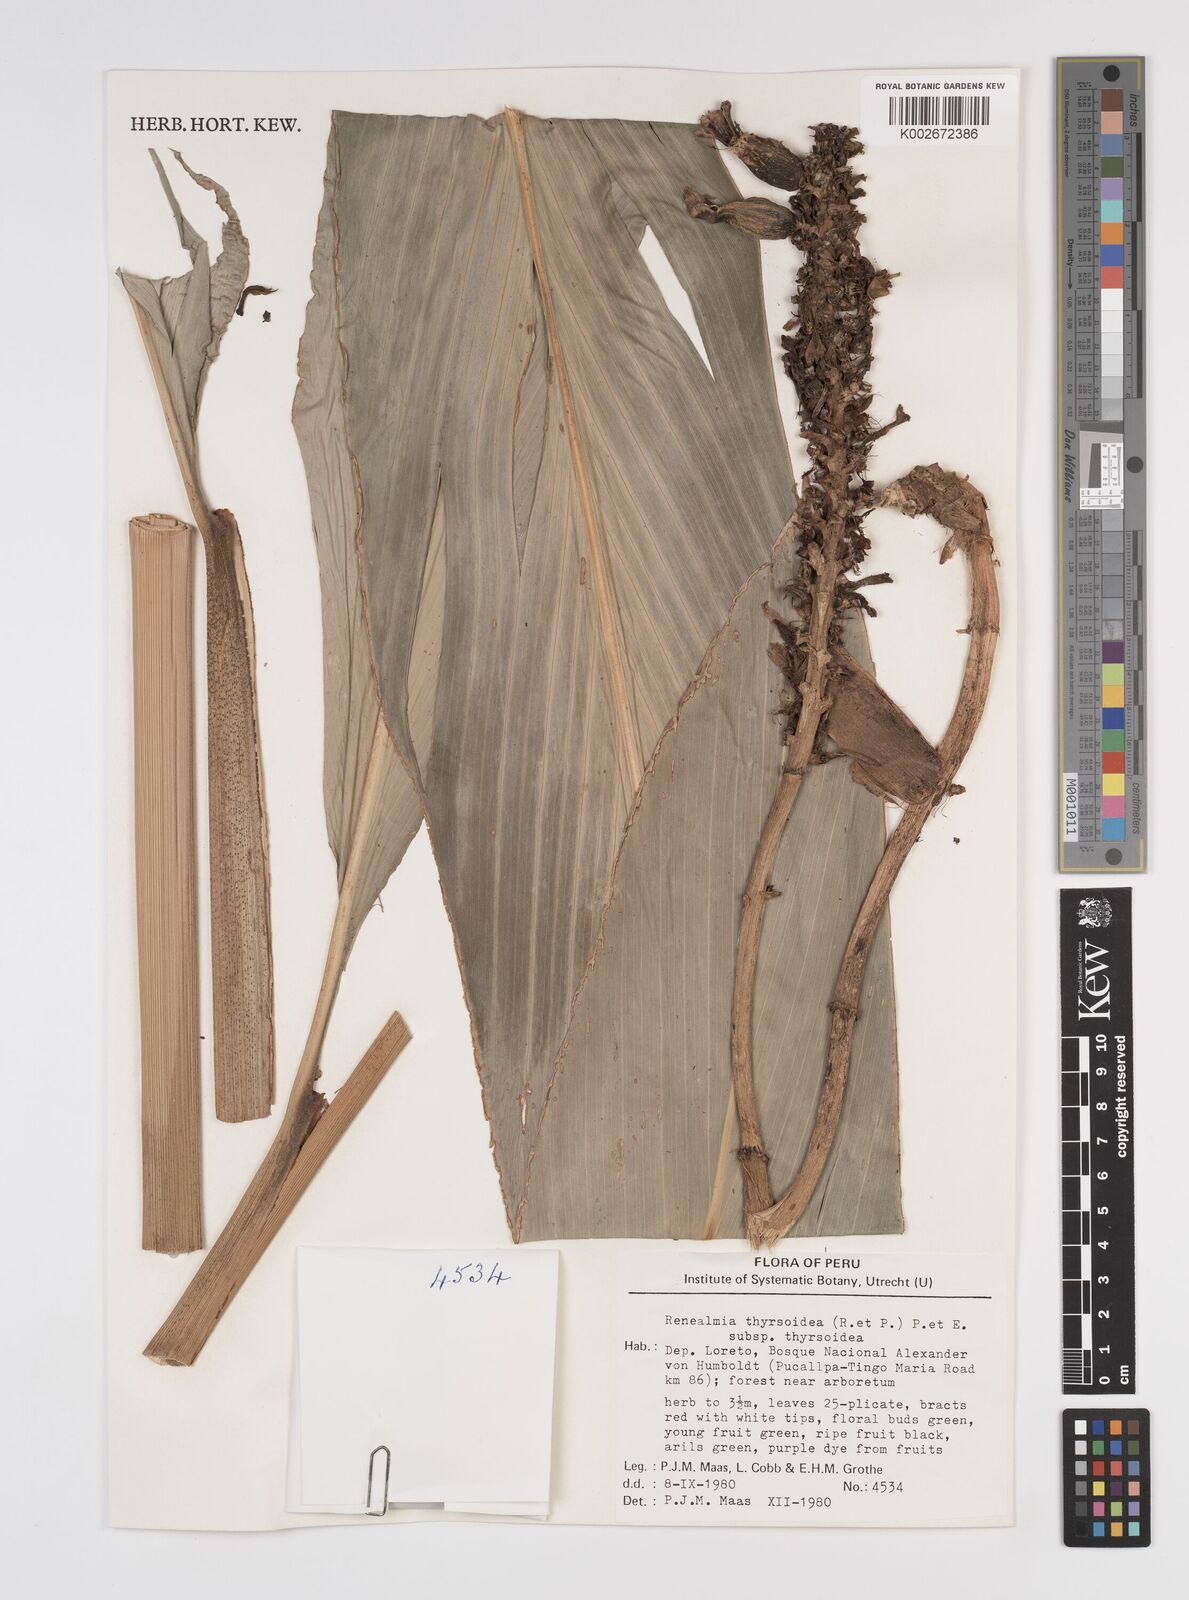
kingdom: Plantae
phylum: Tracheophyta
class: Liliopsida
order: Zingiberales
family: Zingiberaceae
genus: Renealmia
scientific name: Renealmia thyrsoidea
